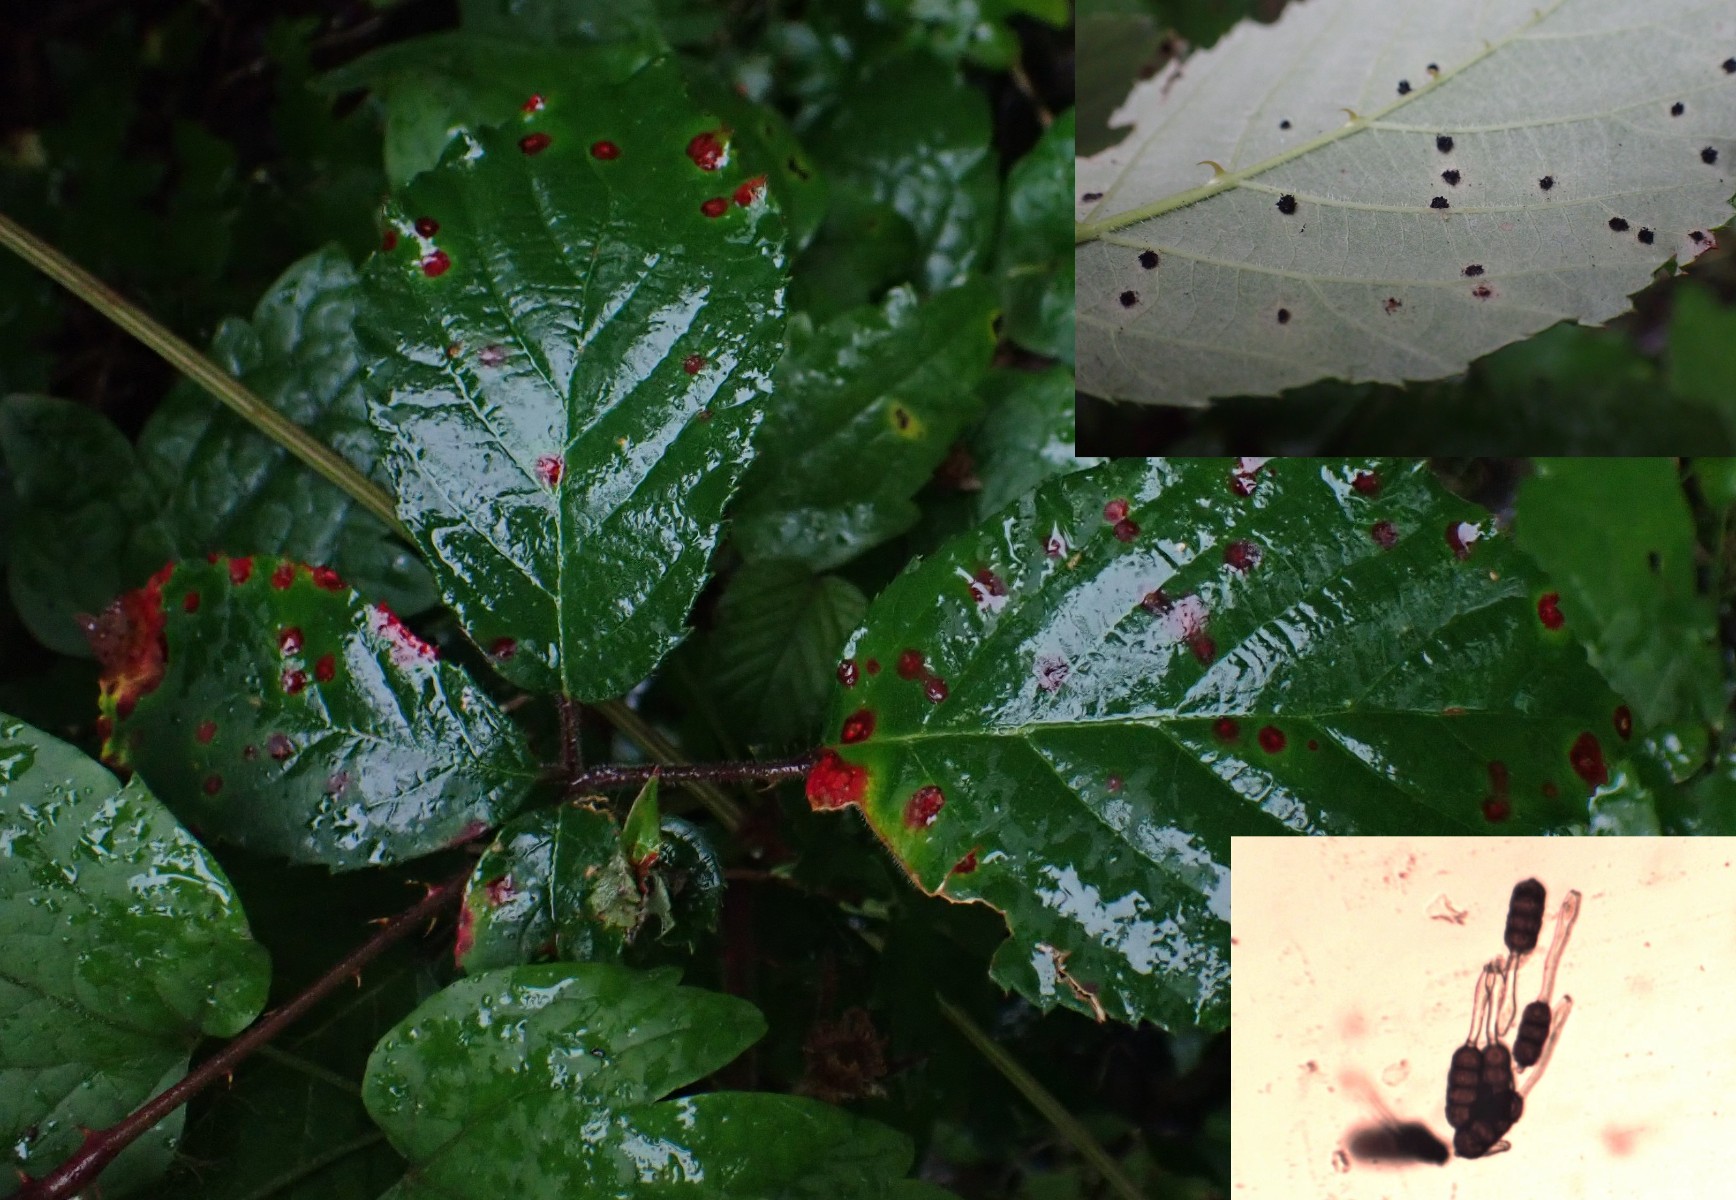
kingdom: Fungi
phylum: Basidiomycota
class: Pucciniomycetes
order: Pucciniales
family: Phragmidiaceae
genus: Phragmidium
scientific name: Phragmidium violaceum
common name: violet flercellerust
